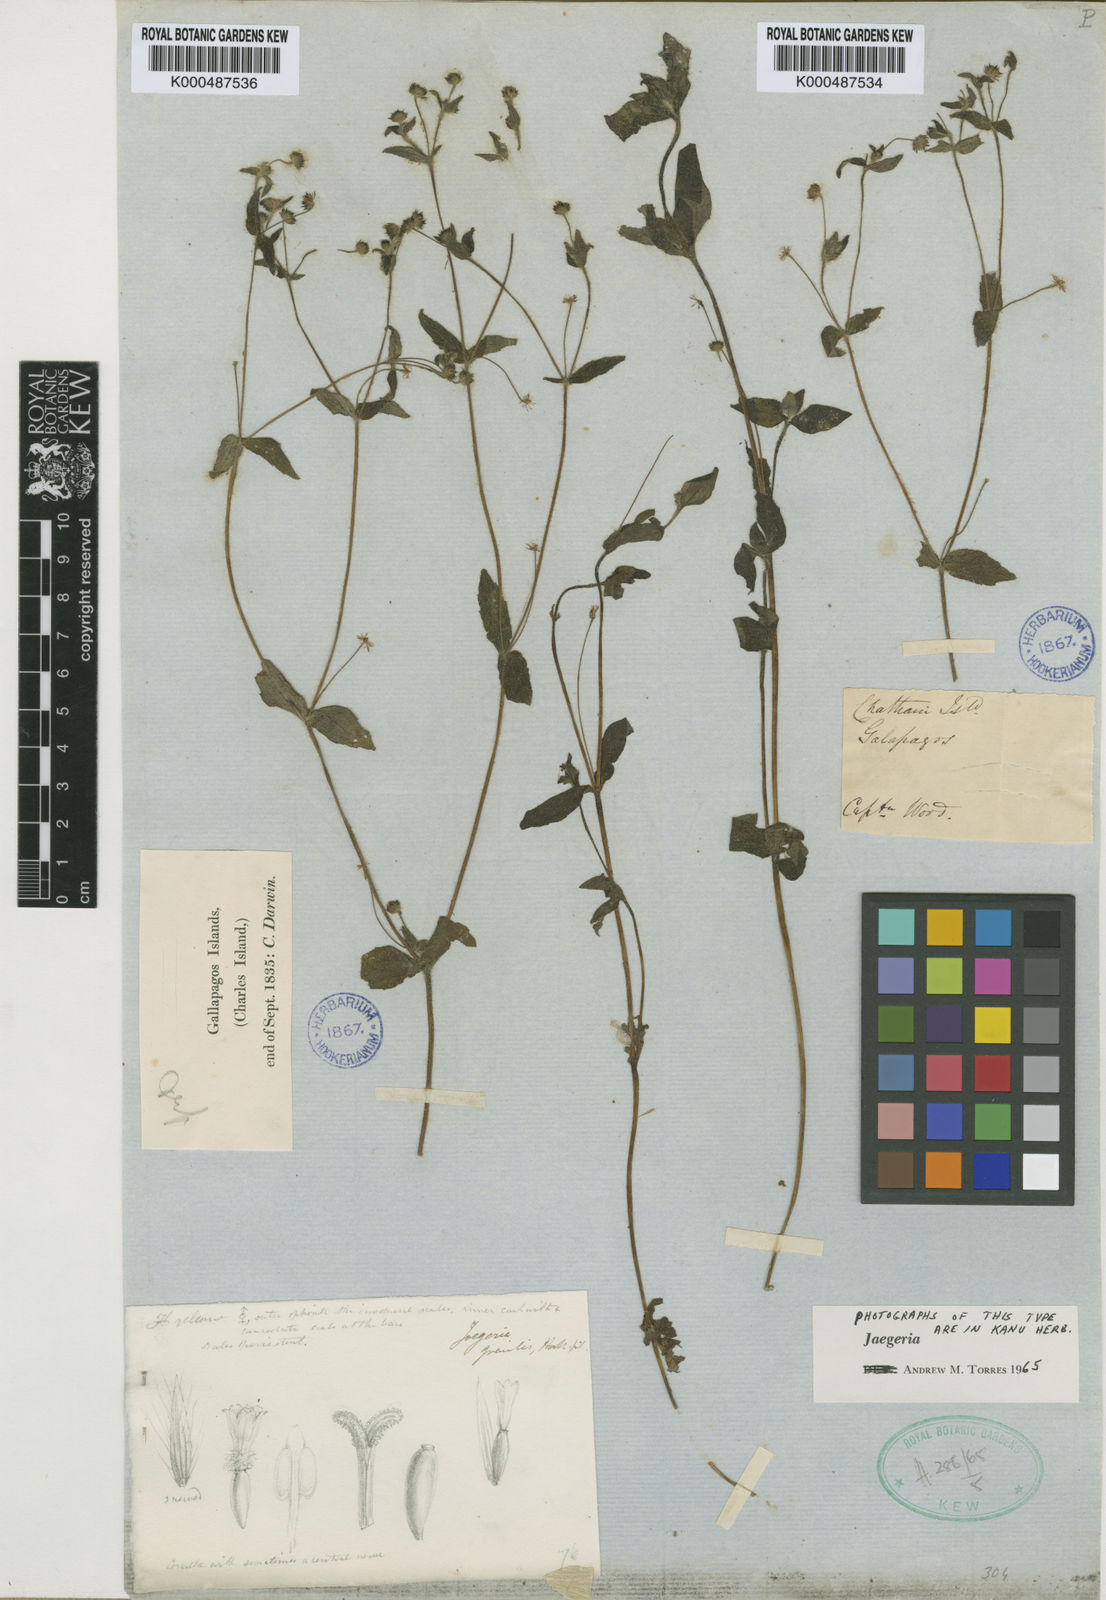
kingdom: Plantae
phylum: Tracheophyta
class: Magnoliopsida
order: Asterales
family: Asteraceae
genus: Jaegeria
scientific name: Jaegeria gracilis
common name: Galapagos jaegeria
